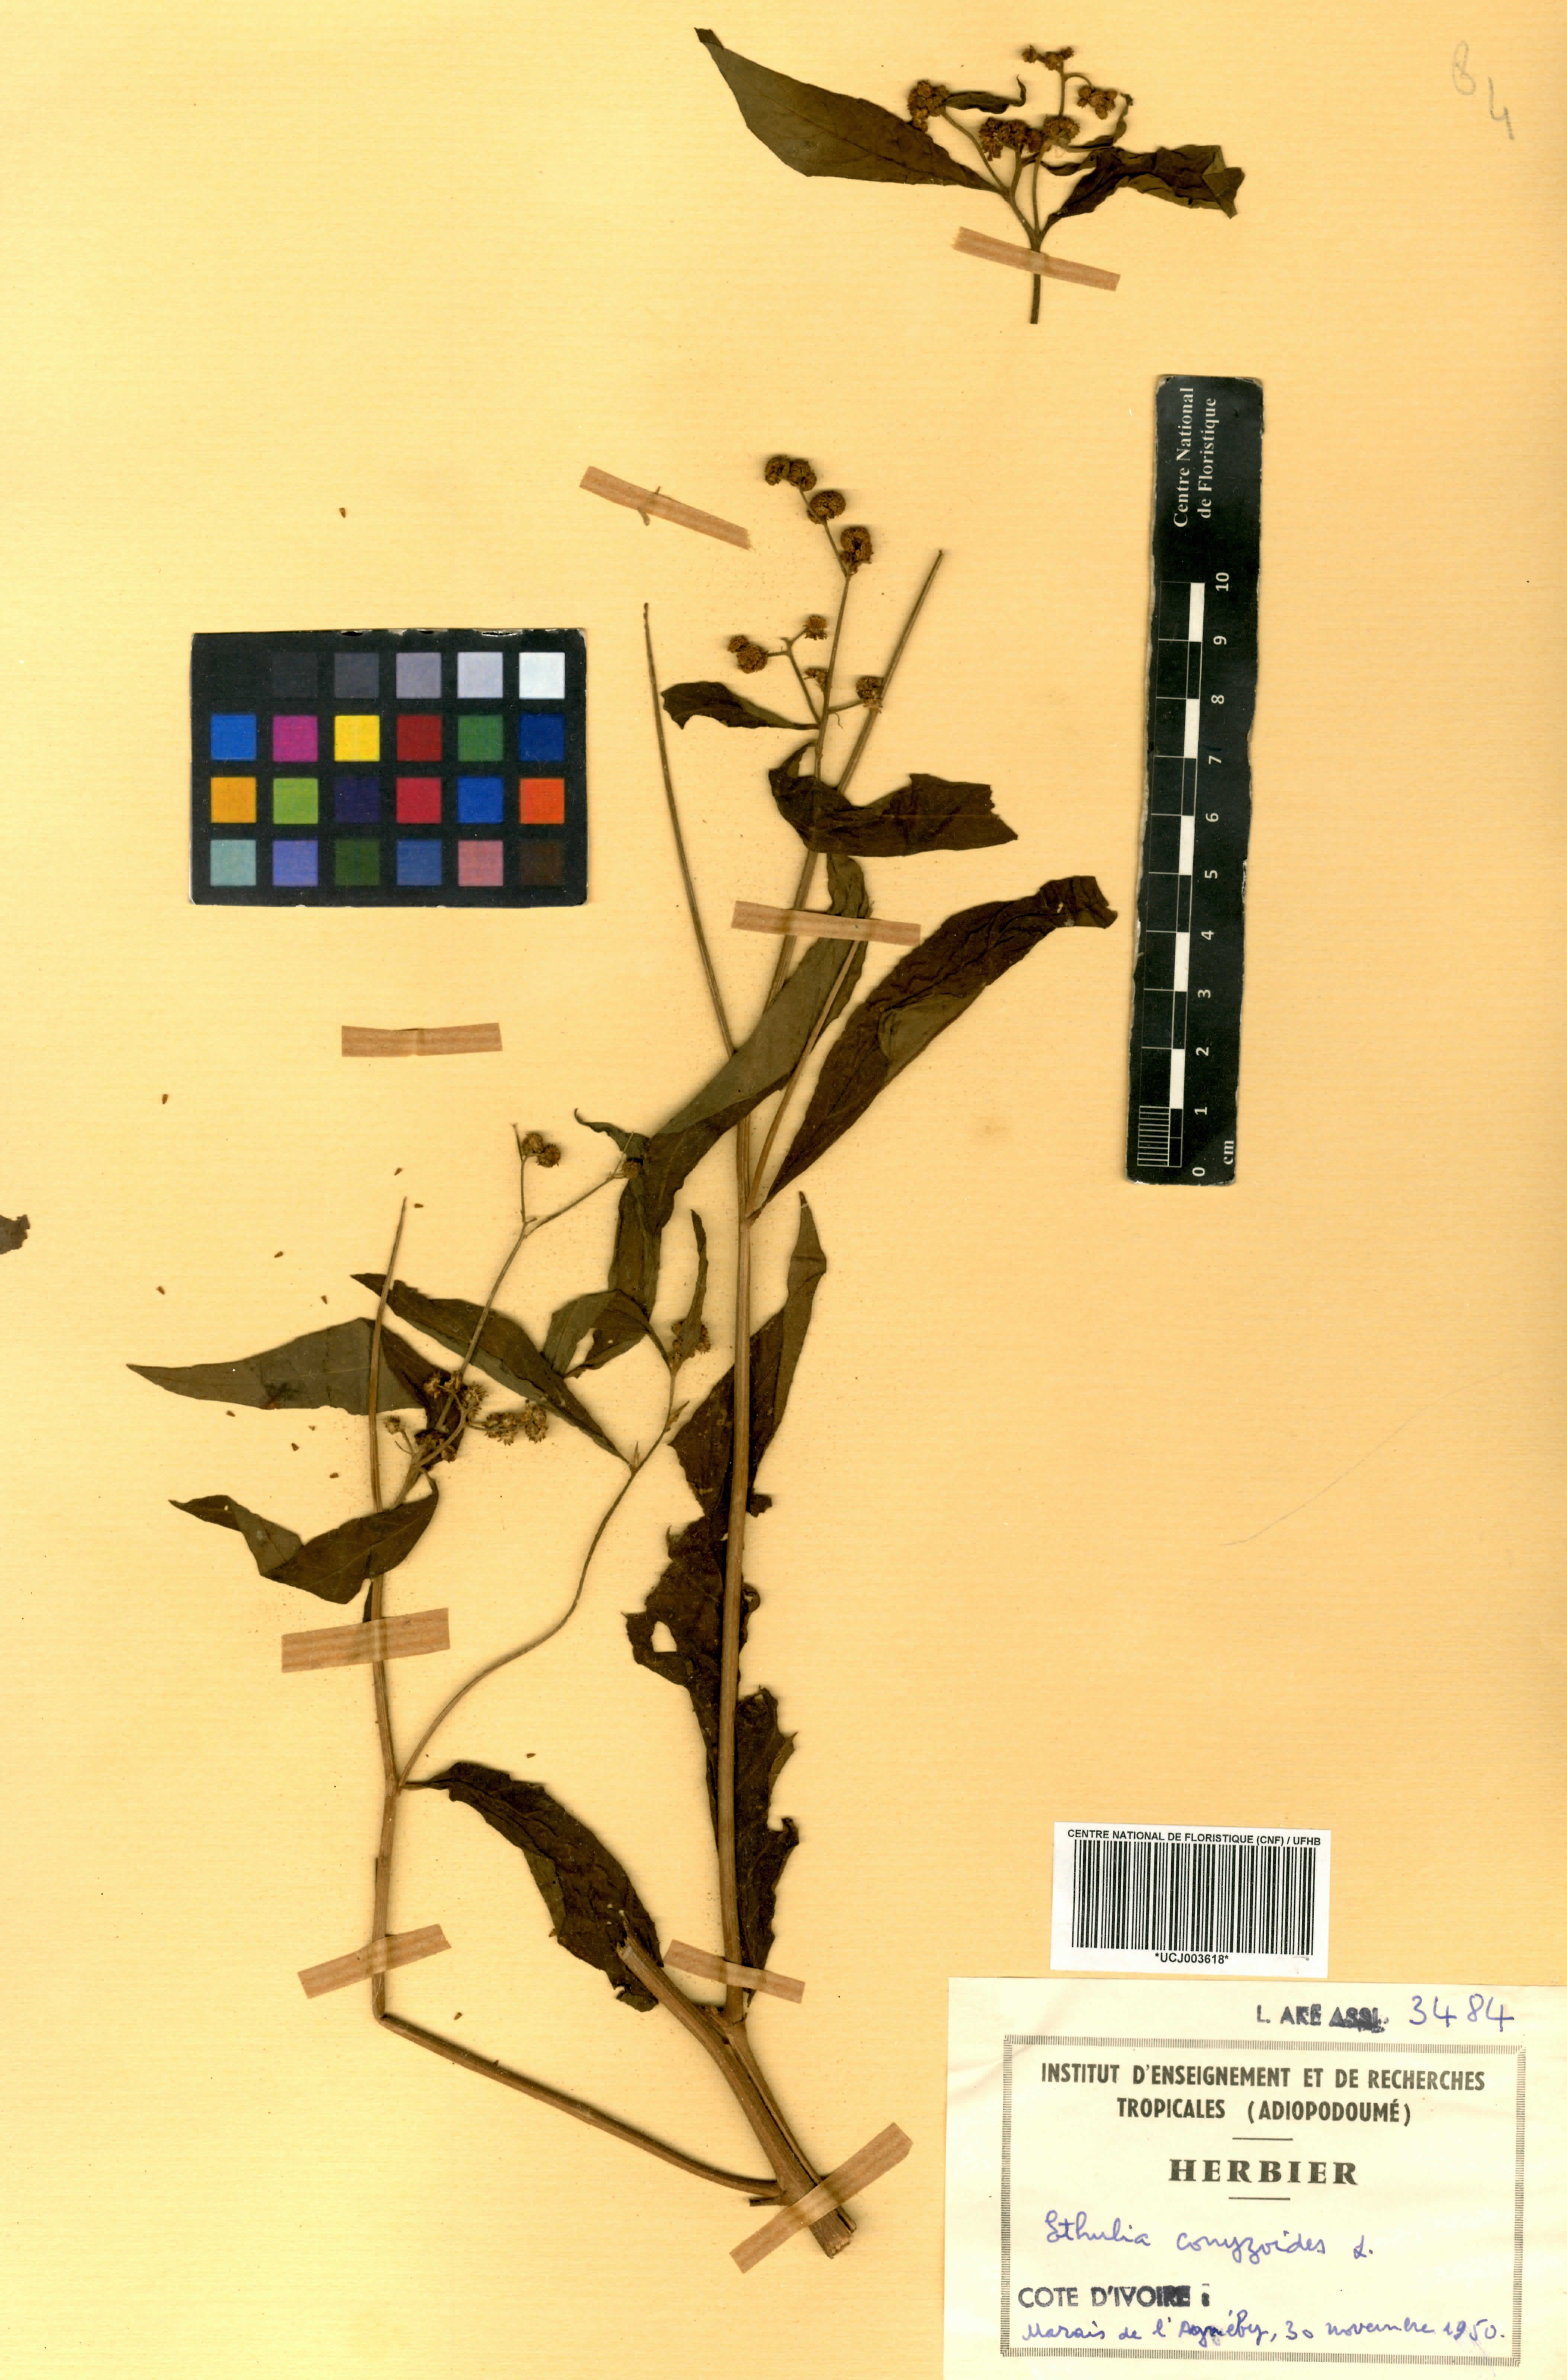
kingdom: Plantae
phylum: Tracheophyta
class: Magnoliopsida
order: Asterales
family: Asteraceae
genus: Ethulia
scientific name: Ethulia conyzoides
